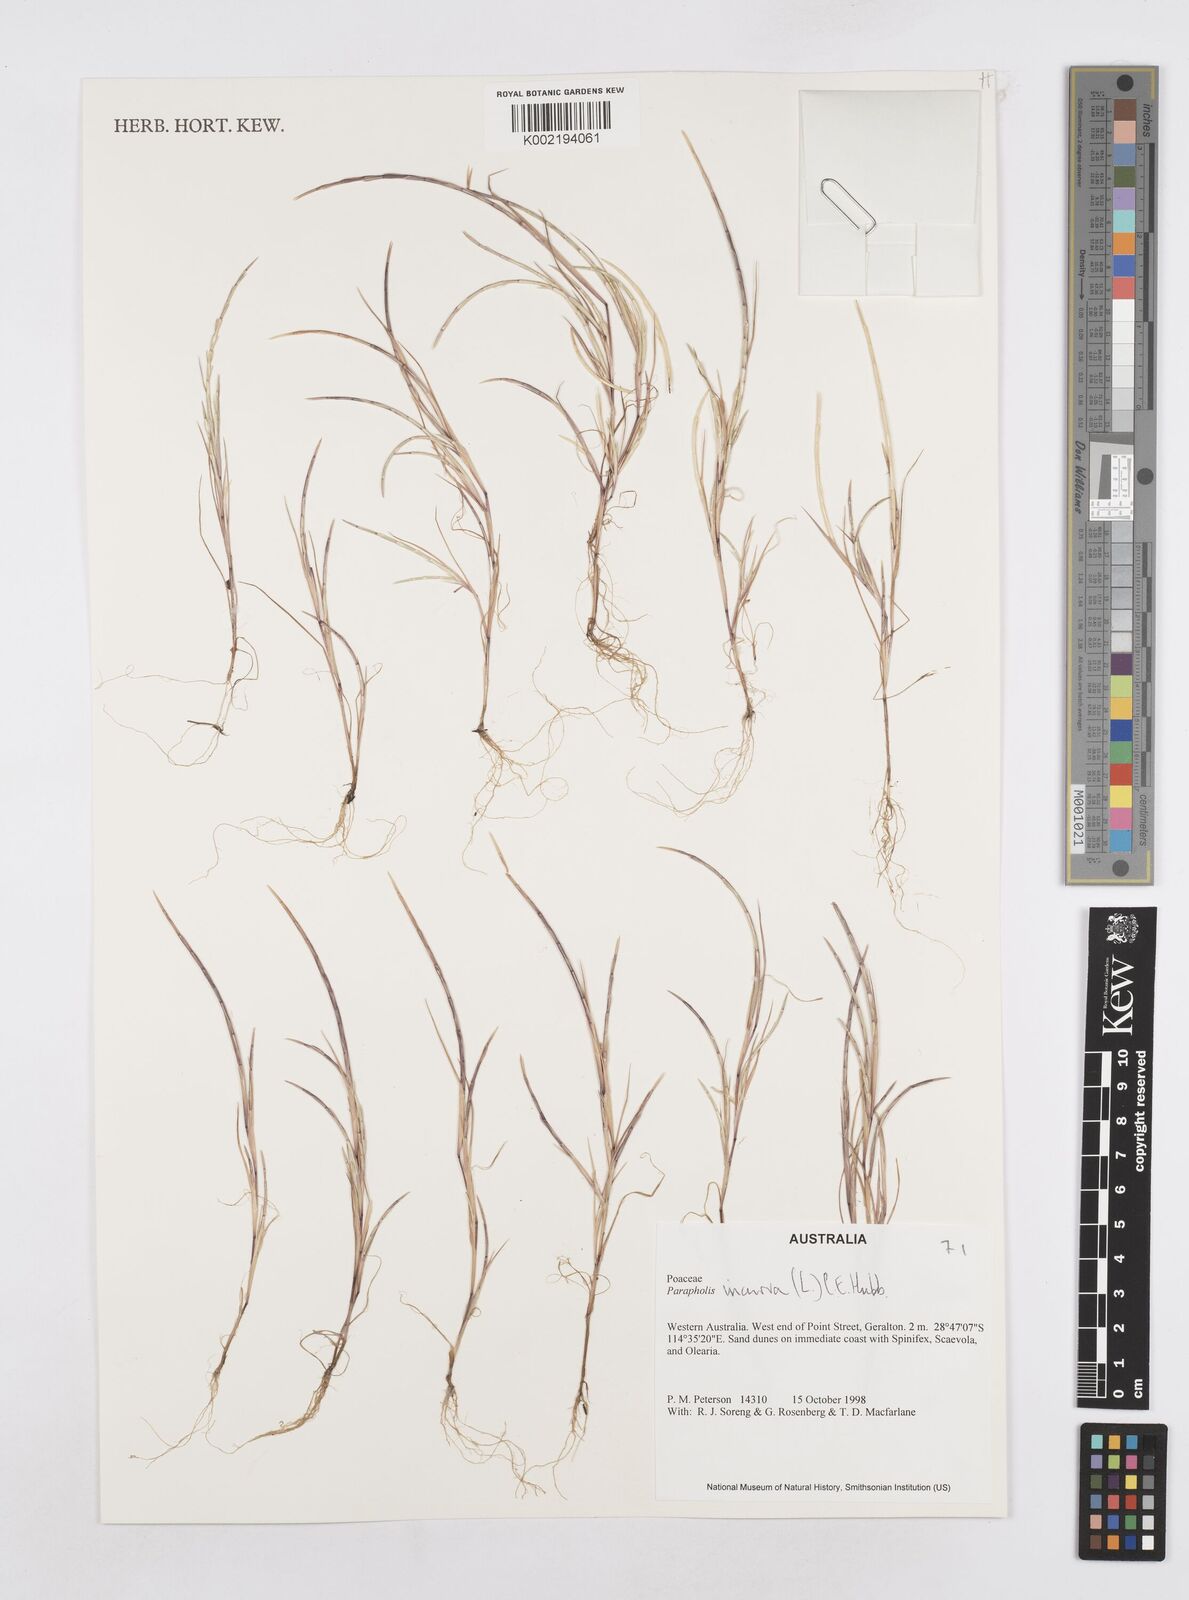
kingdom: Plantae
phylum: Tracheophyta
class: Liliopsida
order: Poales
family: Poaceae
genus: Parapholis
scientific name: Parapholis incurva
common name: Curved sicklegrass
